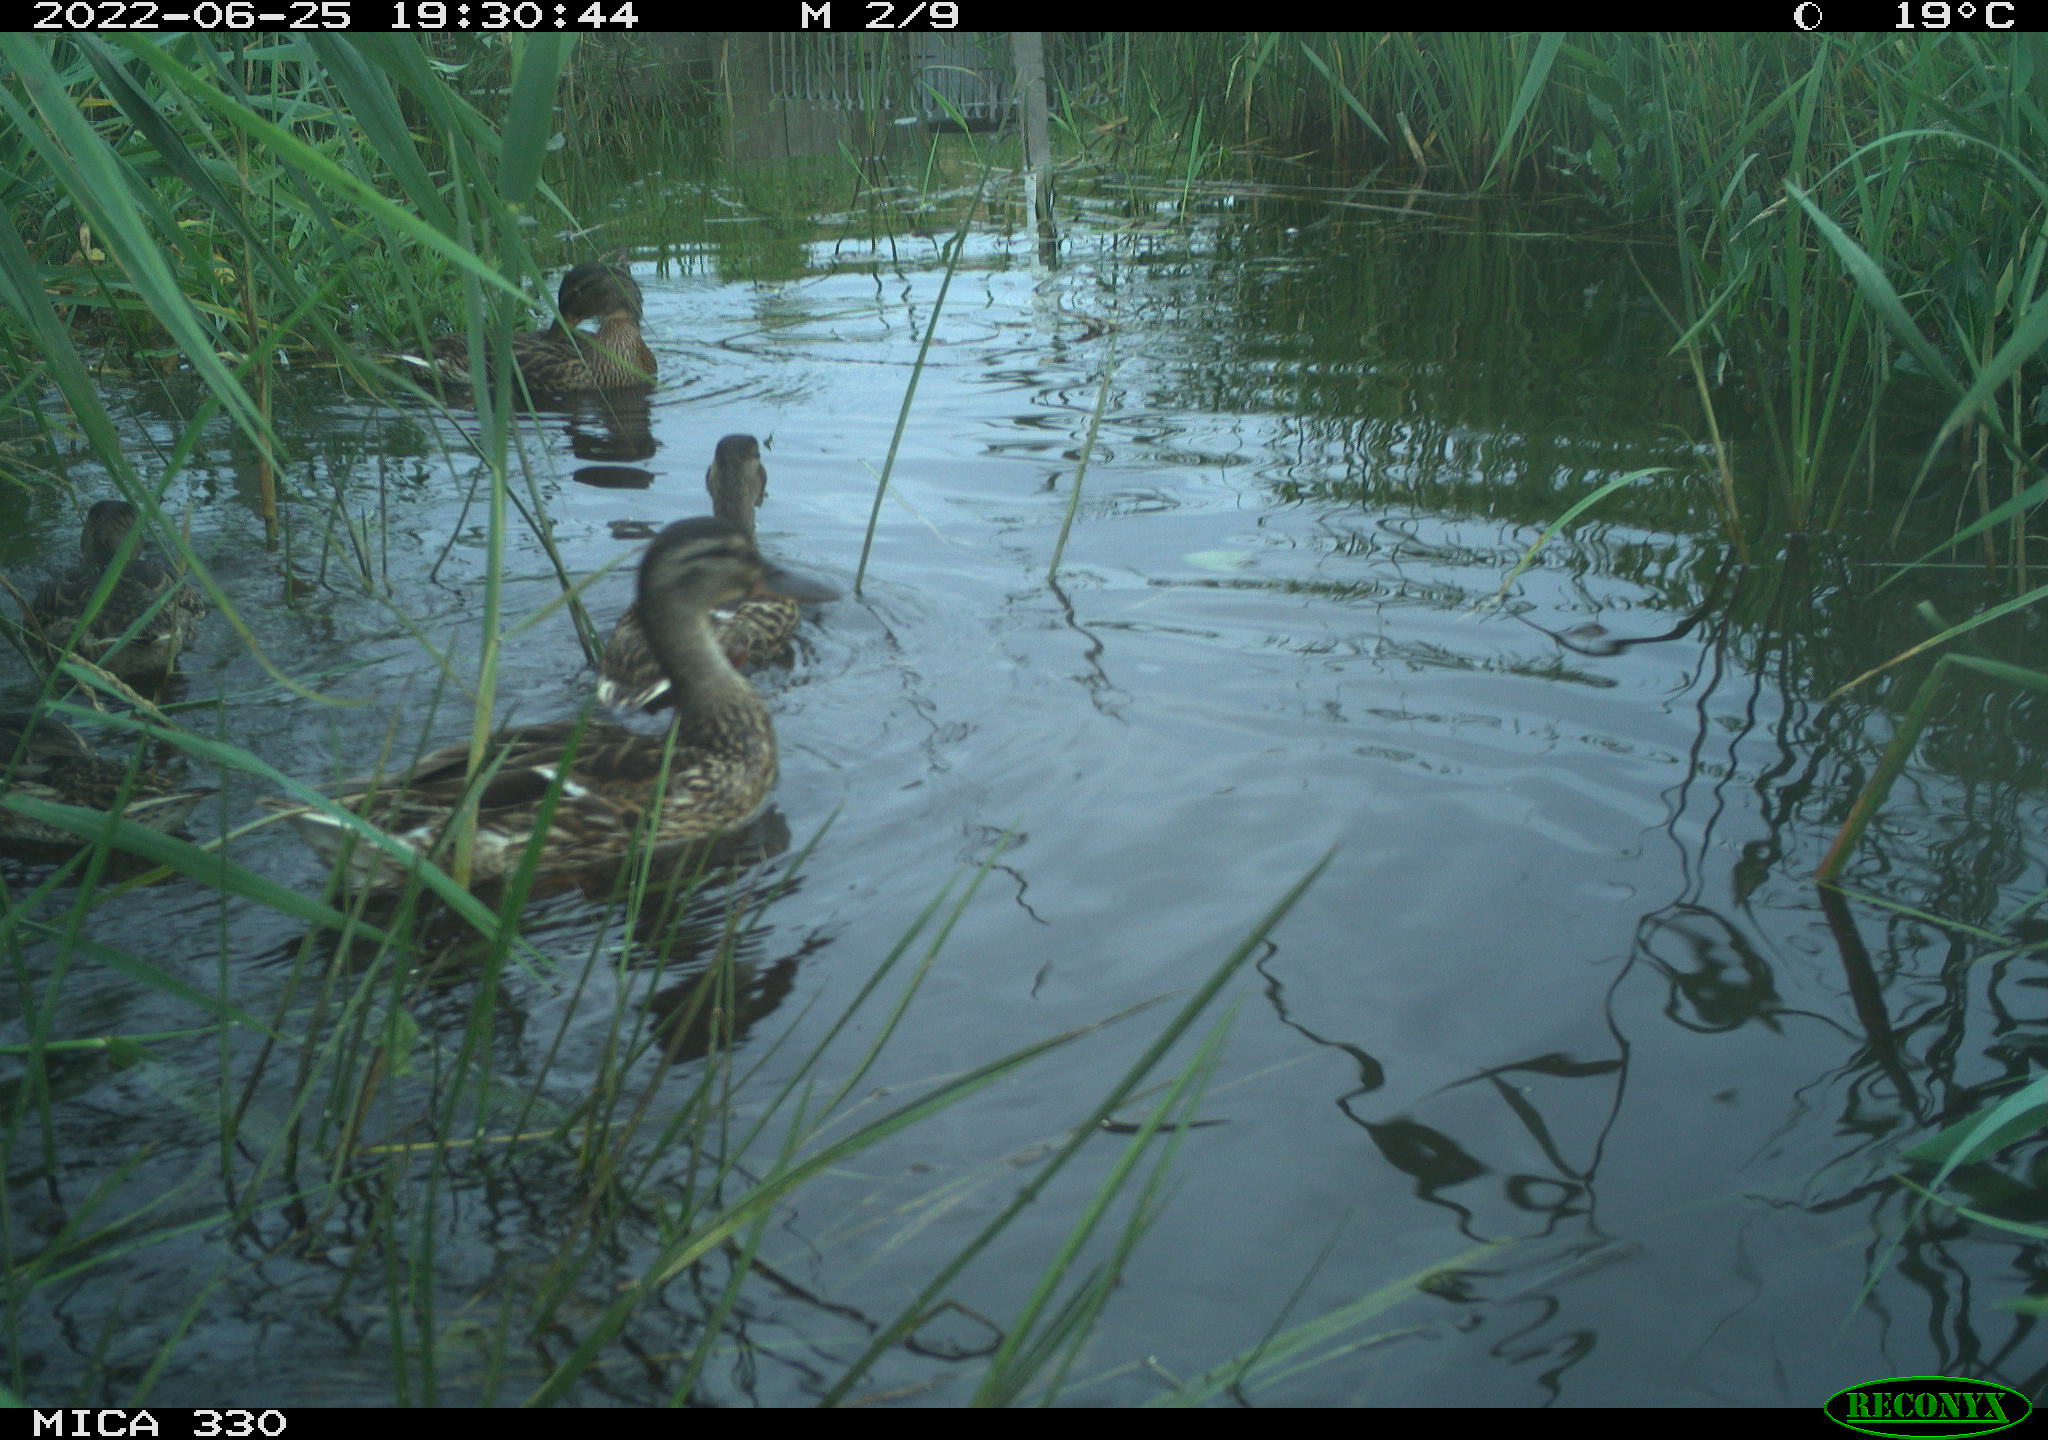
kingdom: Animalia
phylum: Chordata
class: Aves
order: Anseriformes
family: Anatidae
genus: Mareca
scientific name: Mareca strepera
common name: Gadwall
